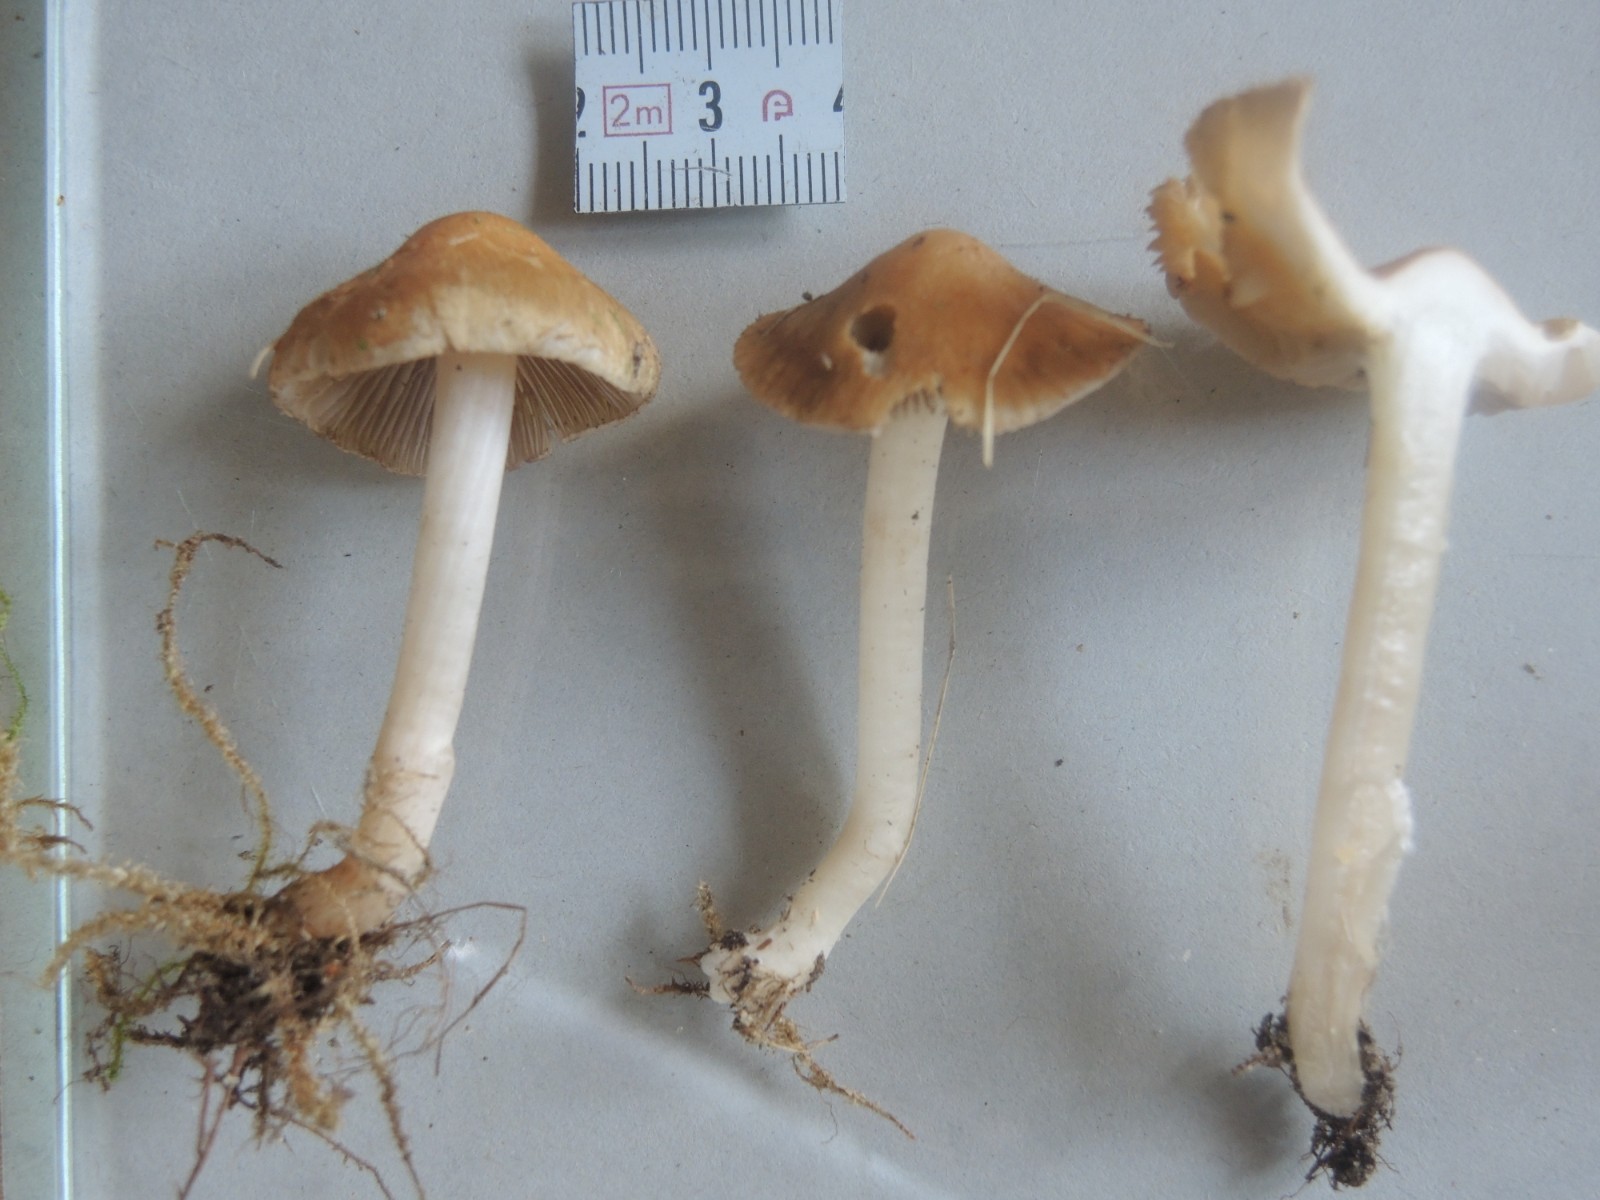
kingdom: Fungi
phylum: Basidiomycota
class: Agaricomycetes
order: Agaricales
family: Inocybaceae
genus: Inocybe
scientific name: Inocybe
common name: trævlhat
